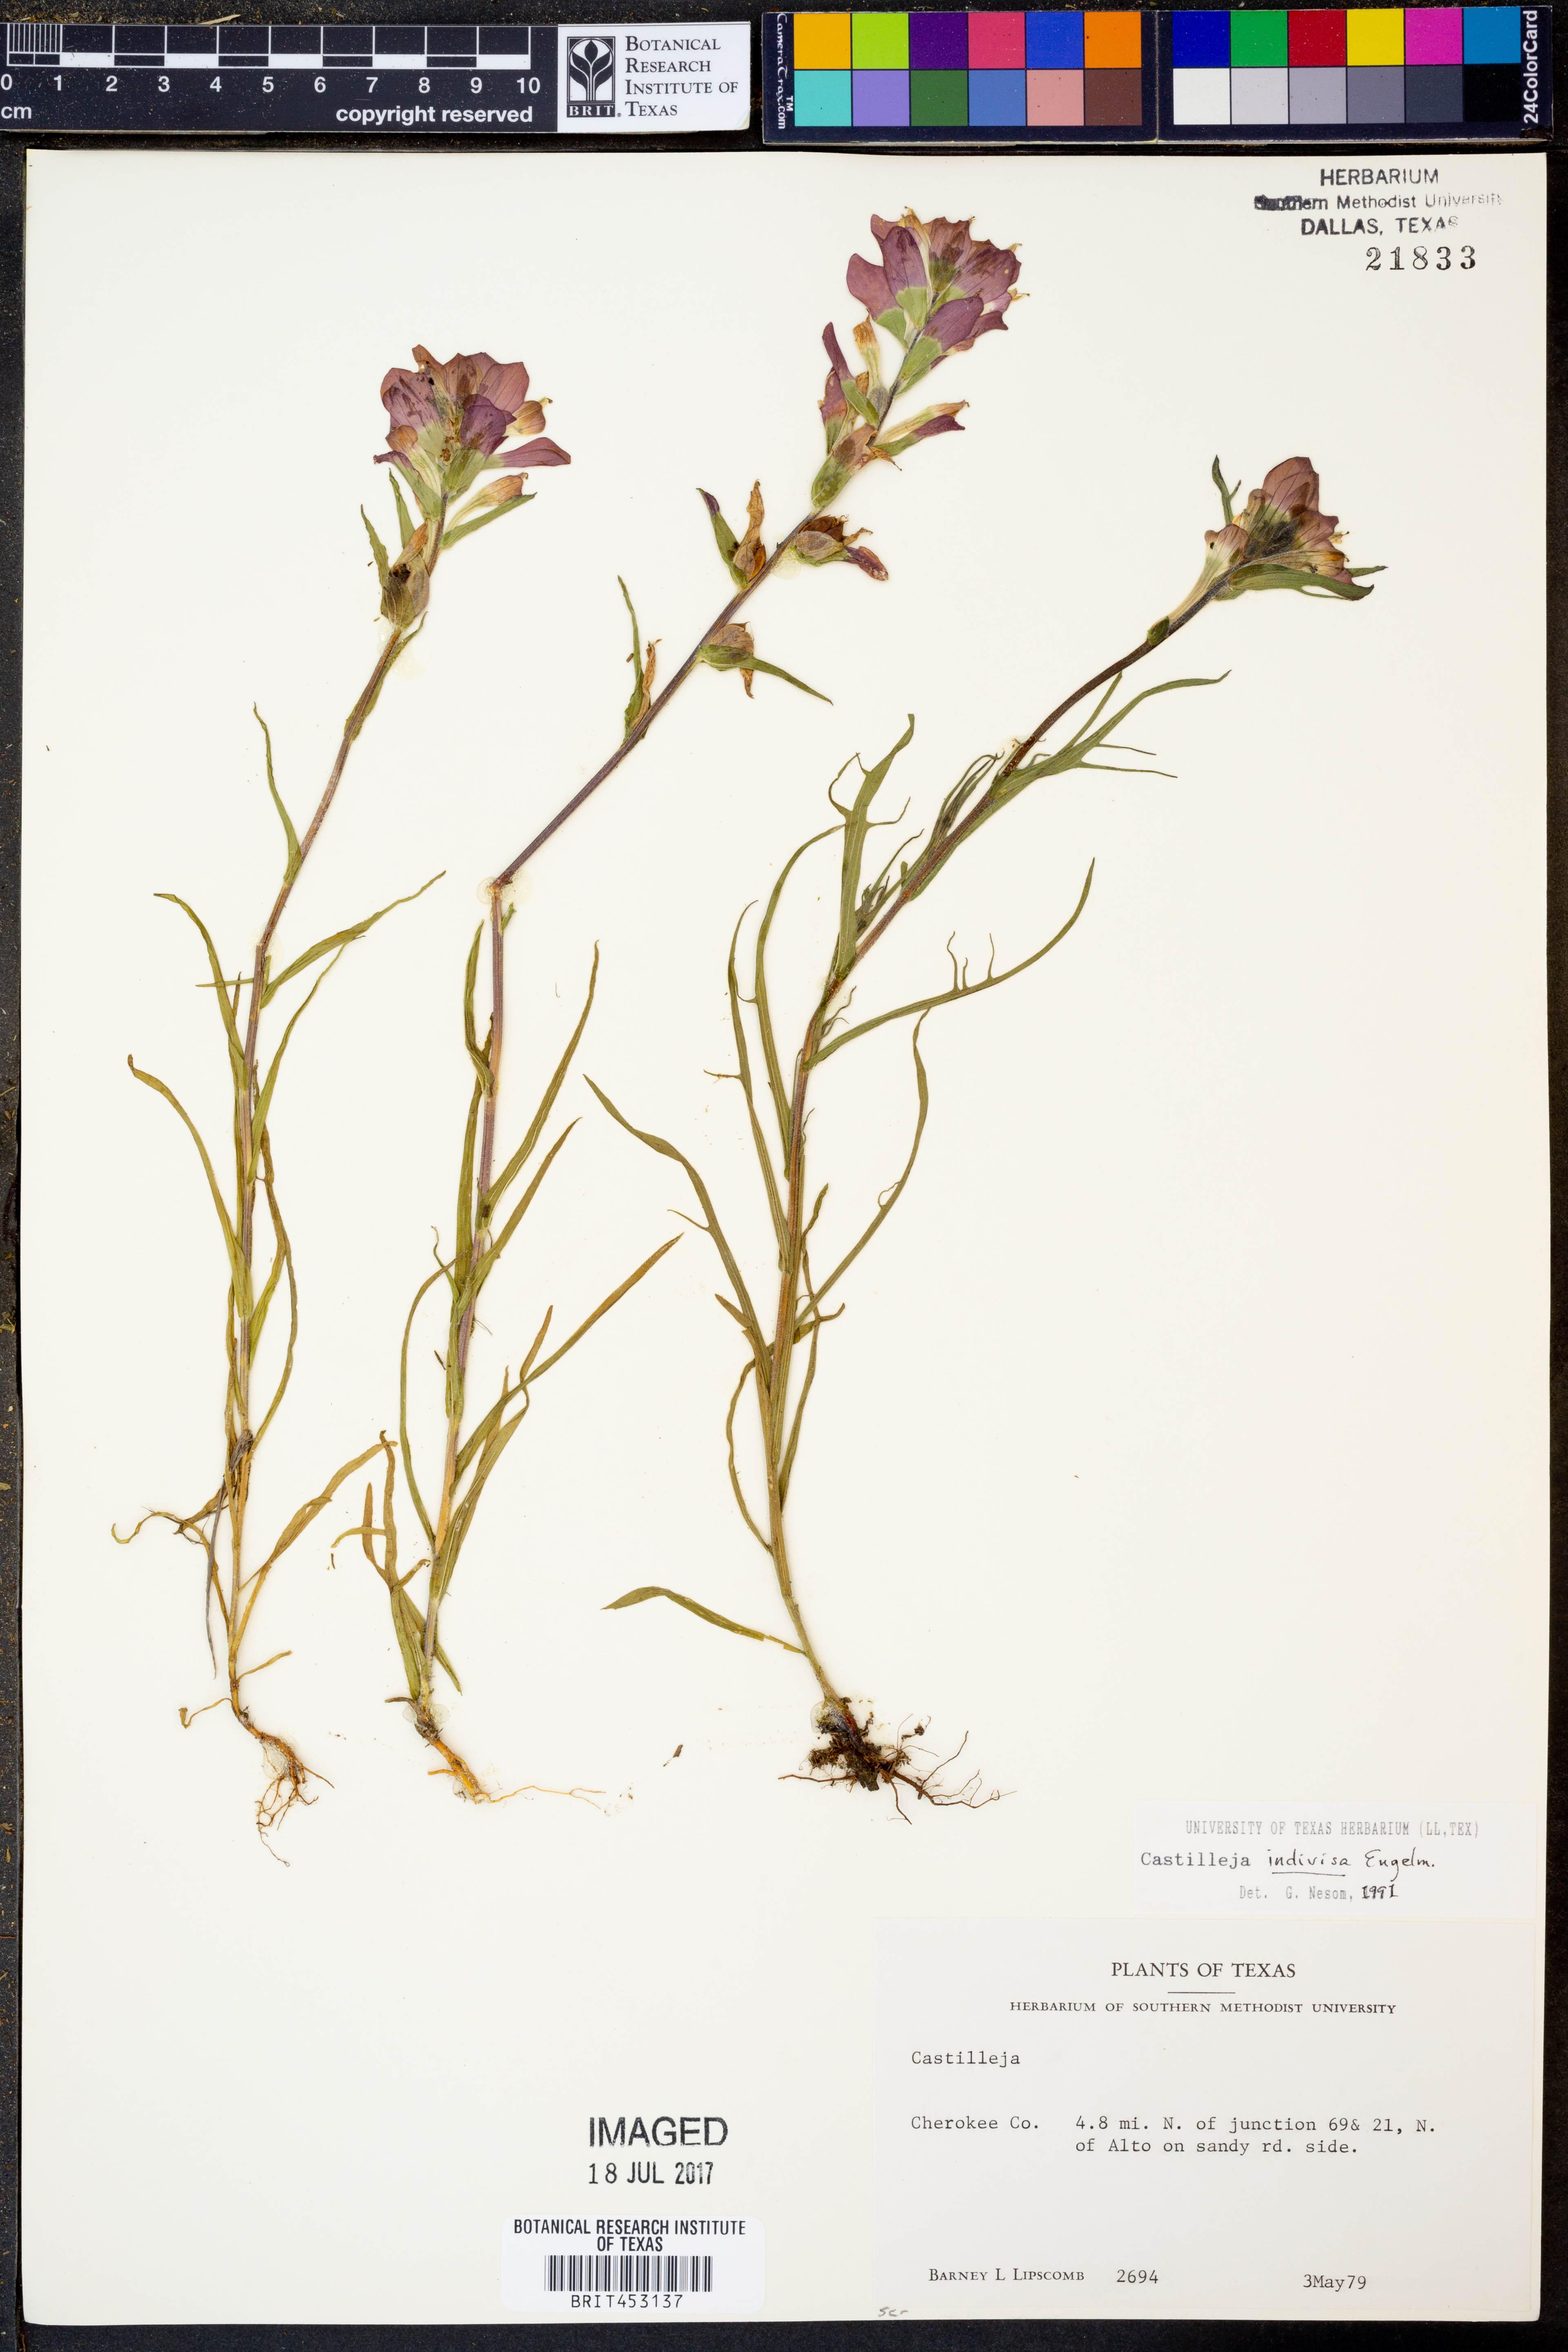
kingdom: Plantae
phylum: Tracheophyta
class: Magnoliopsida
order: Lamiales
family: Orobanchaceae
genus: Castilleja
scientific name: Castilleja indivisa
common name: Texas paintbrush
